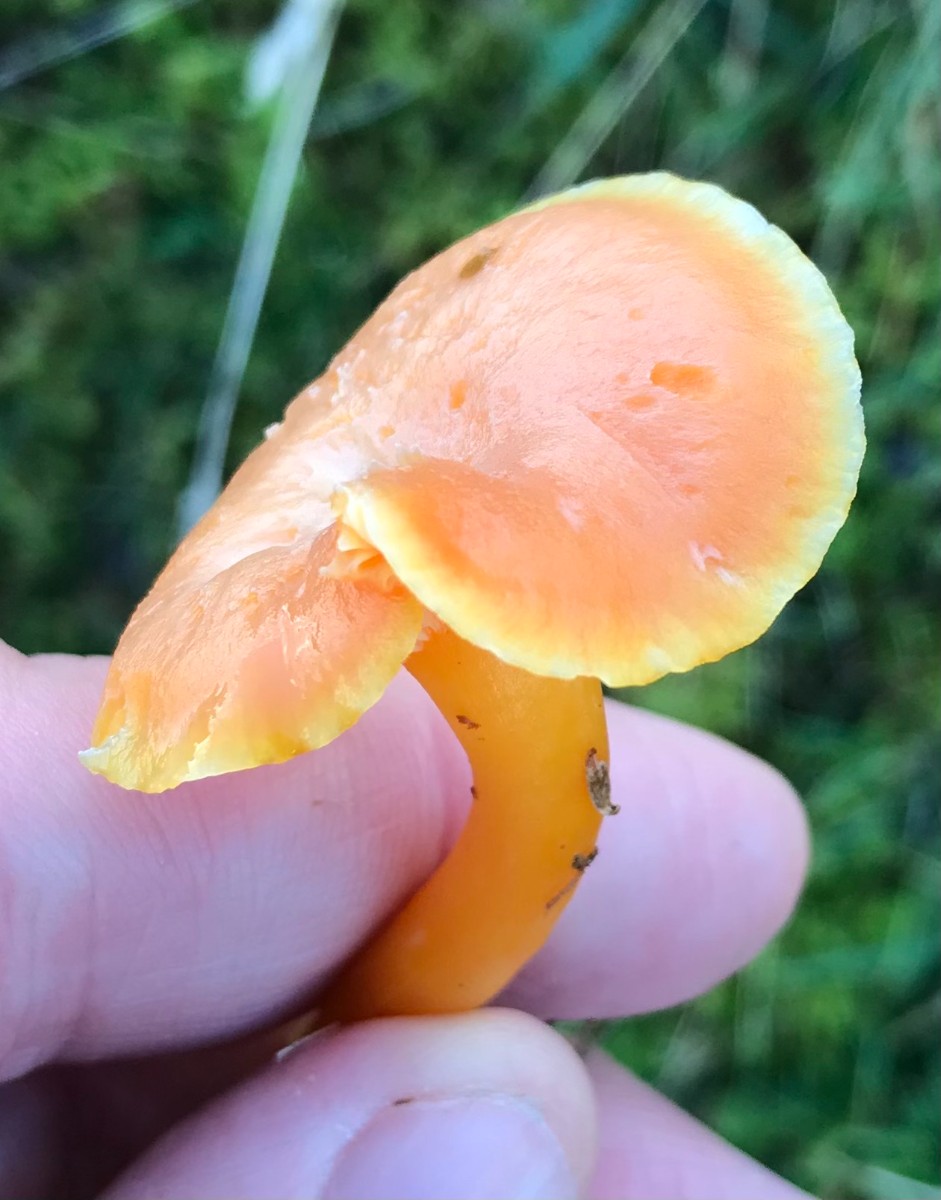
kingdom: Fungi
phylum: Basidiomycota
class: Agaricomycetes
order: Agaricales
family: Hygrophoraceae
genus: Hygrocybe
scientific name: Hygrocybe reidii
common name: honning-vokshat
